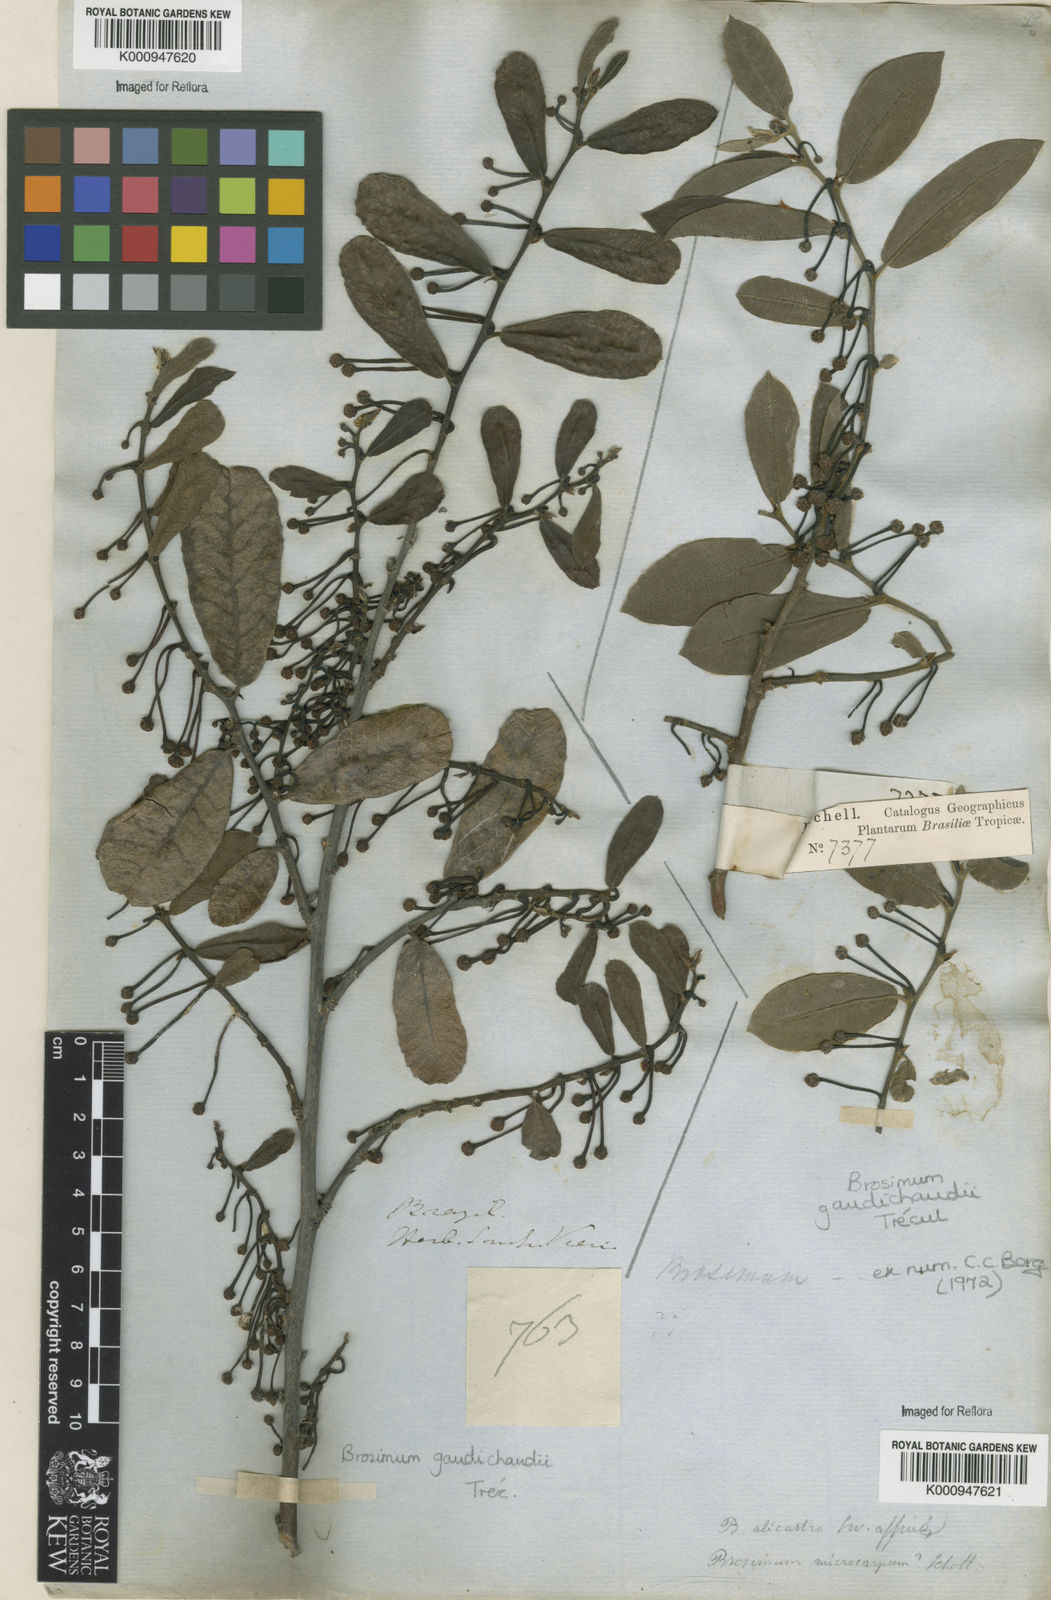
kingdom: Plantae
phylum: Tracheophyta
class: Magnoliopsida
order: Rosales
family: Moraceae
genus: Brosimum
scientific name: Brosimum
